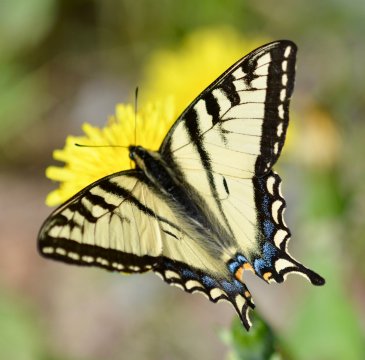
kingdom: Animalia
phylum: Arthropoda
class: Insecta
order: Lepidoptera
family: Papilionidae
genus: Pterourus
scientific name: Pterourus canadensis
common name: Canadian Tiger Swallowtail
